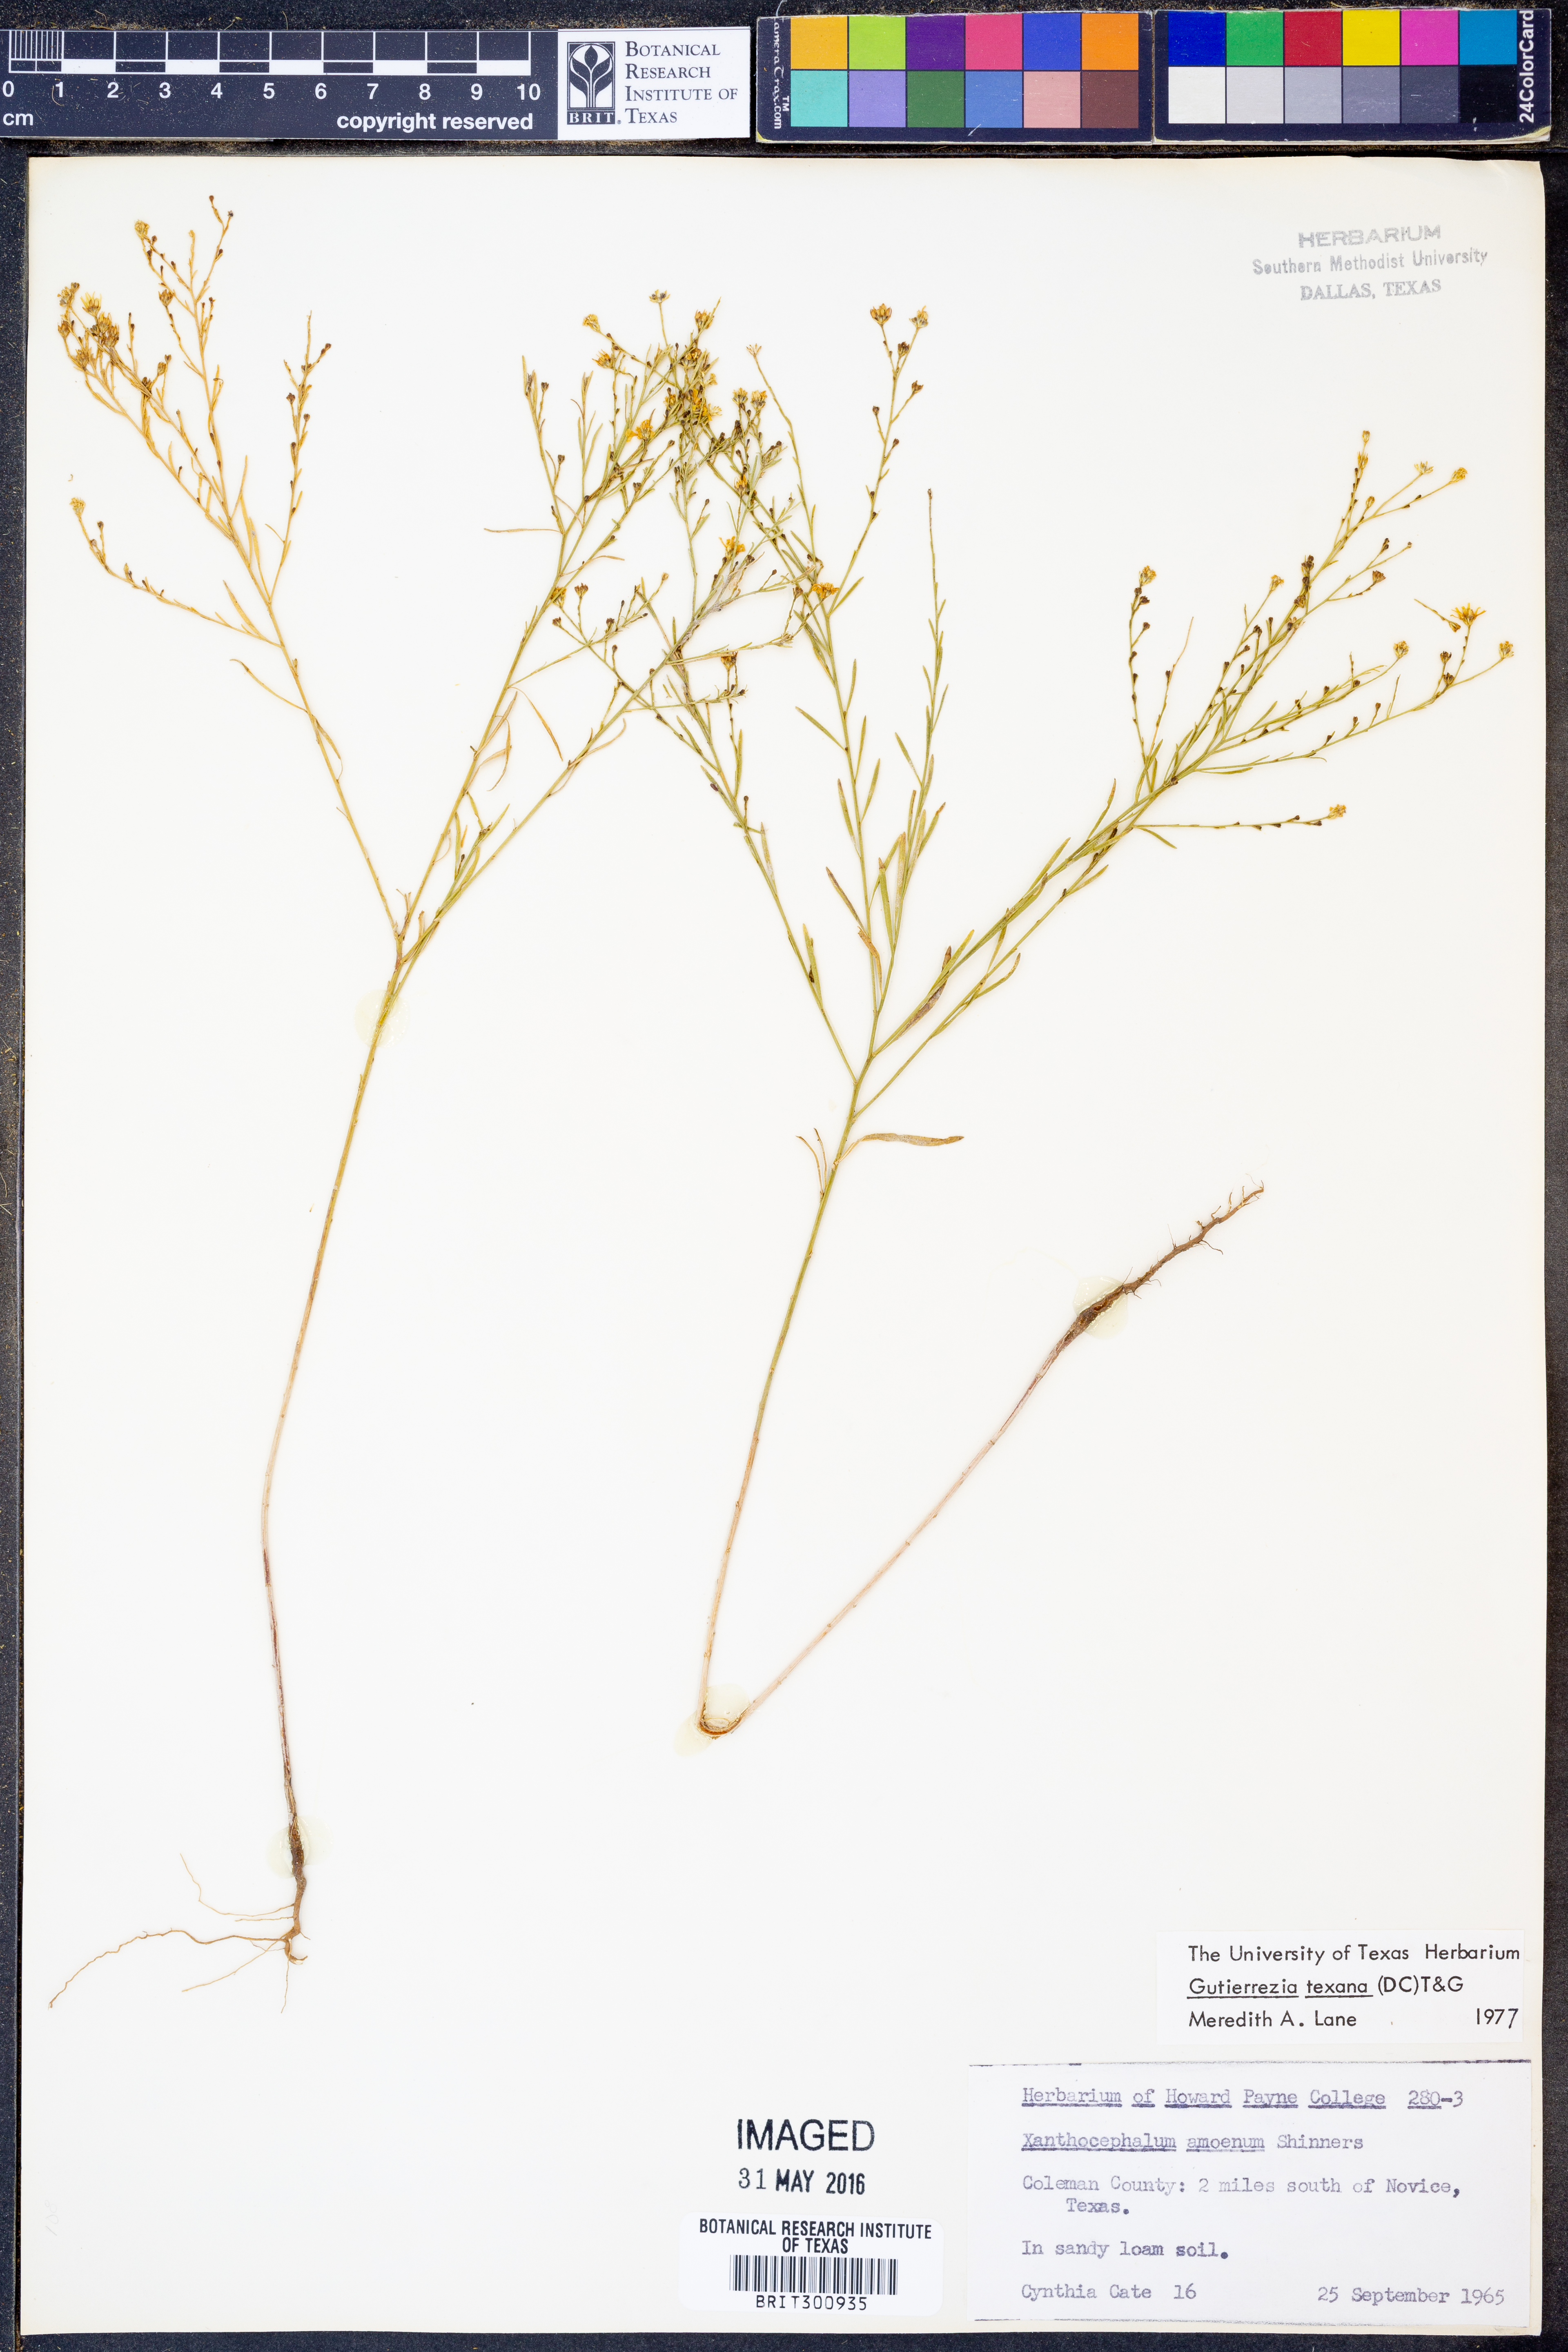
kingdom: Plantae
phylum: Tracheophyta
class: Magnoliopsida
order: Asterales
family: Asteraceae
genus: Gutierrezia
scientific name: Gutierrezia texana
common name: Texas snakeweed
